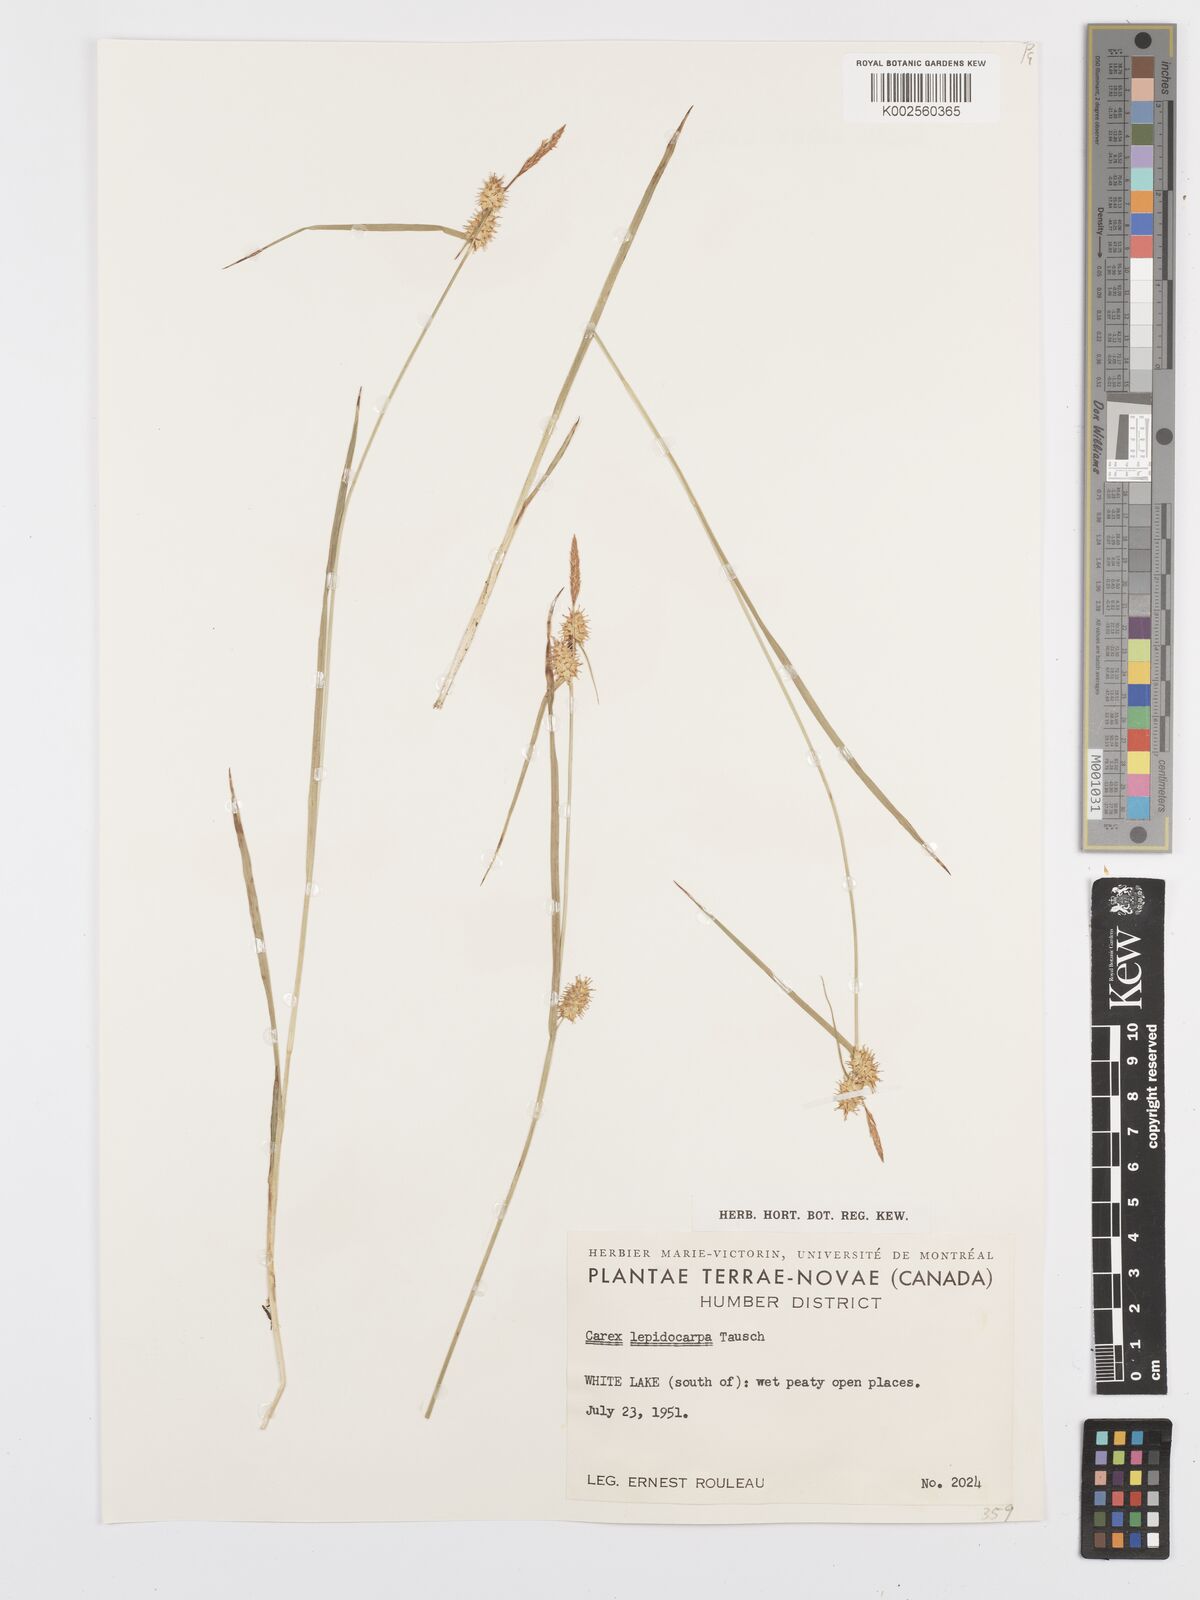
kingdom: Plantae
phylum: Tracheophyta
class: Liliopsida
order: Poales
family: Cyperaceae
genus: Carex
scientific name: Carex lepidocarpa
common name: Long-stalked yellow-sedge
